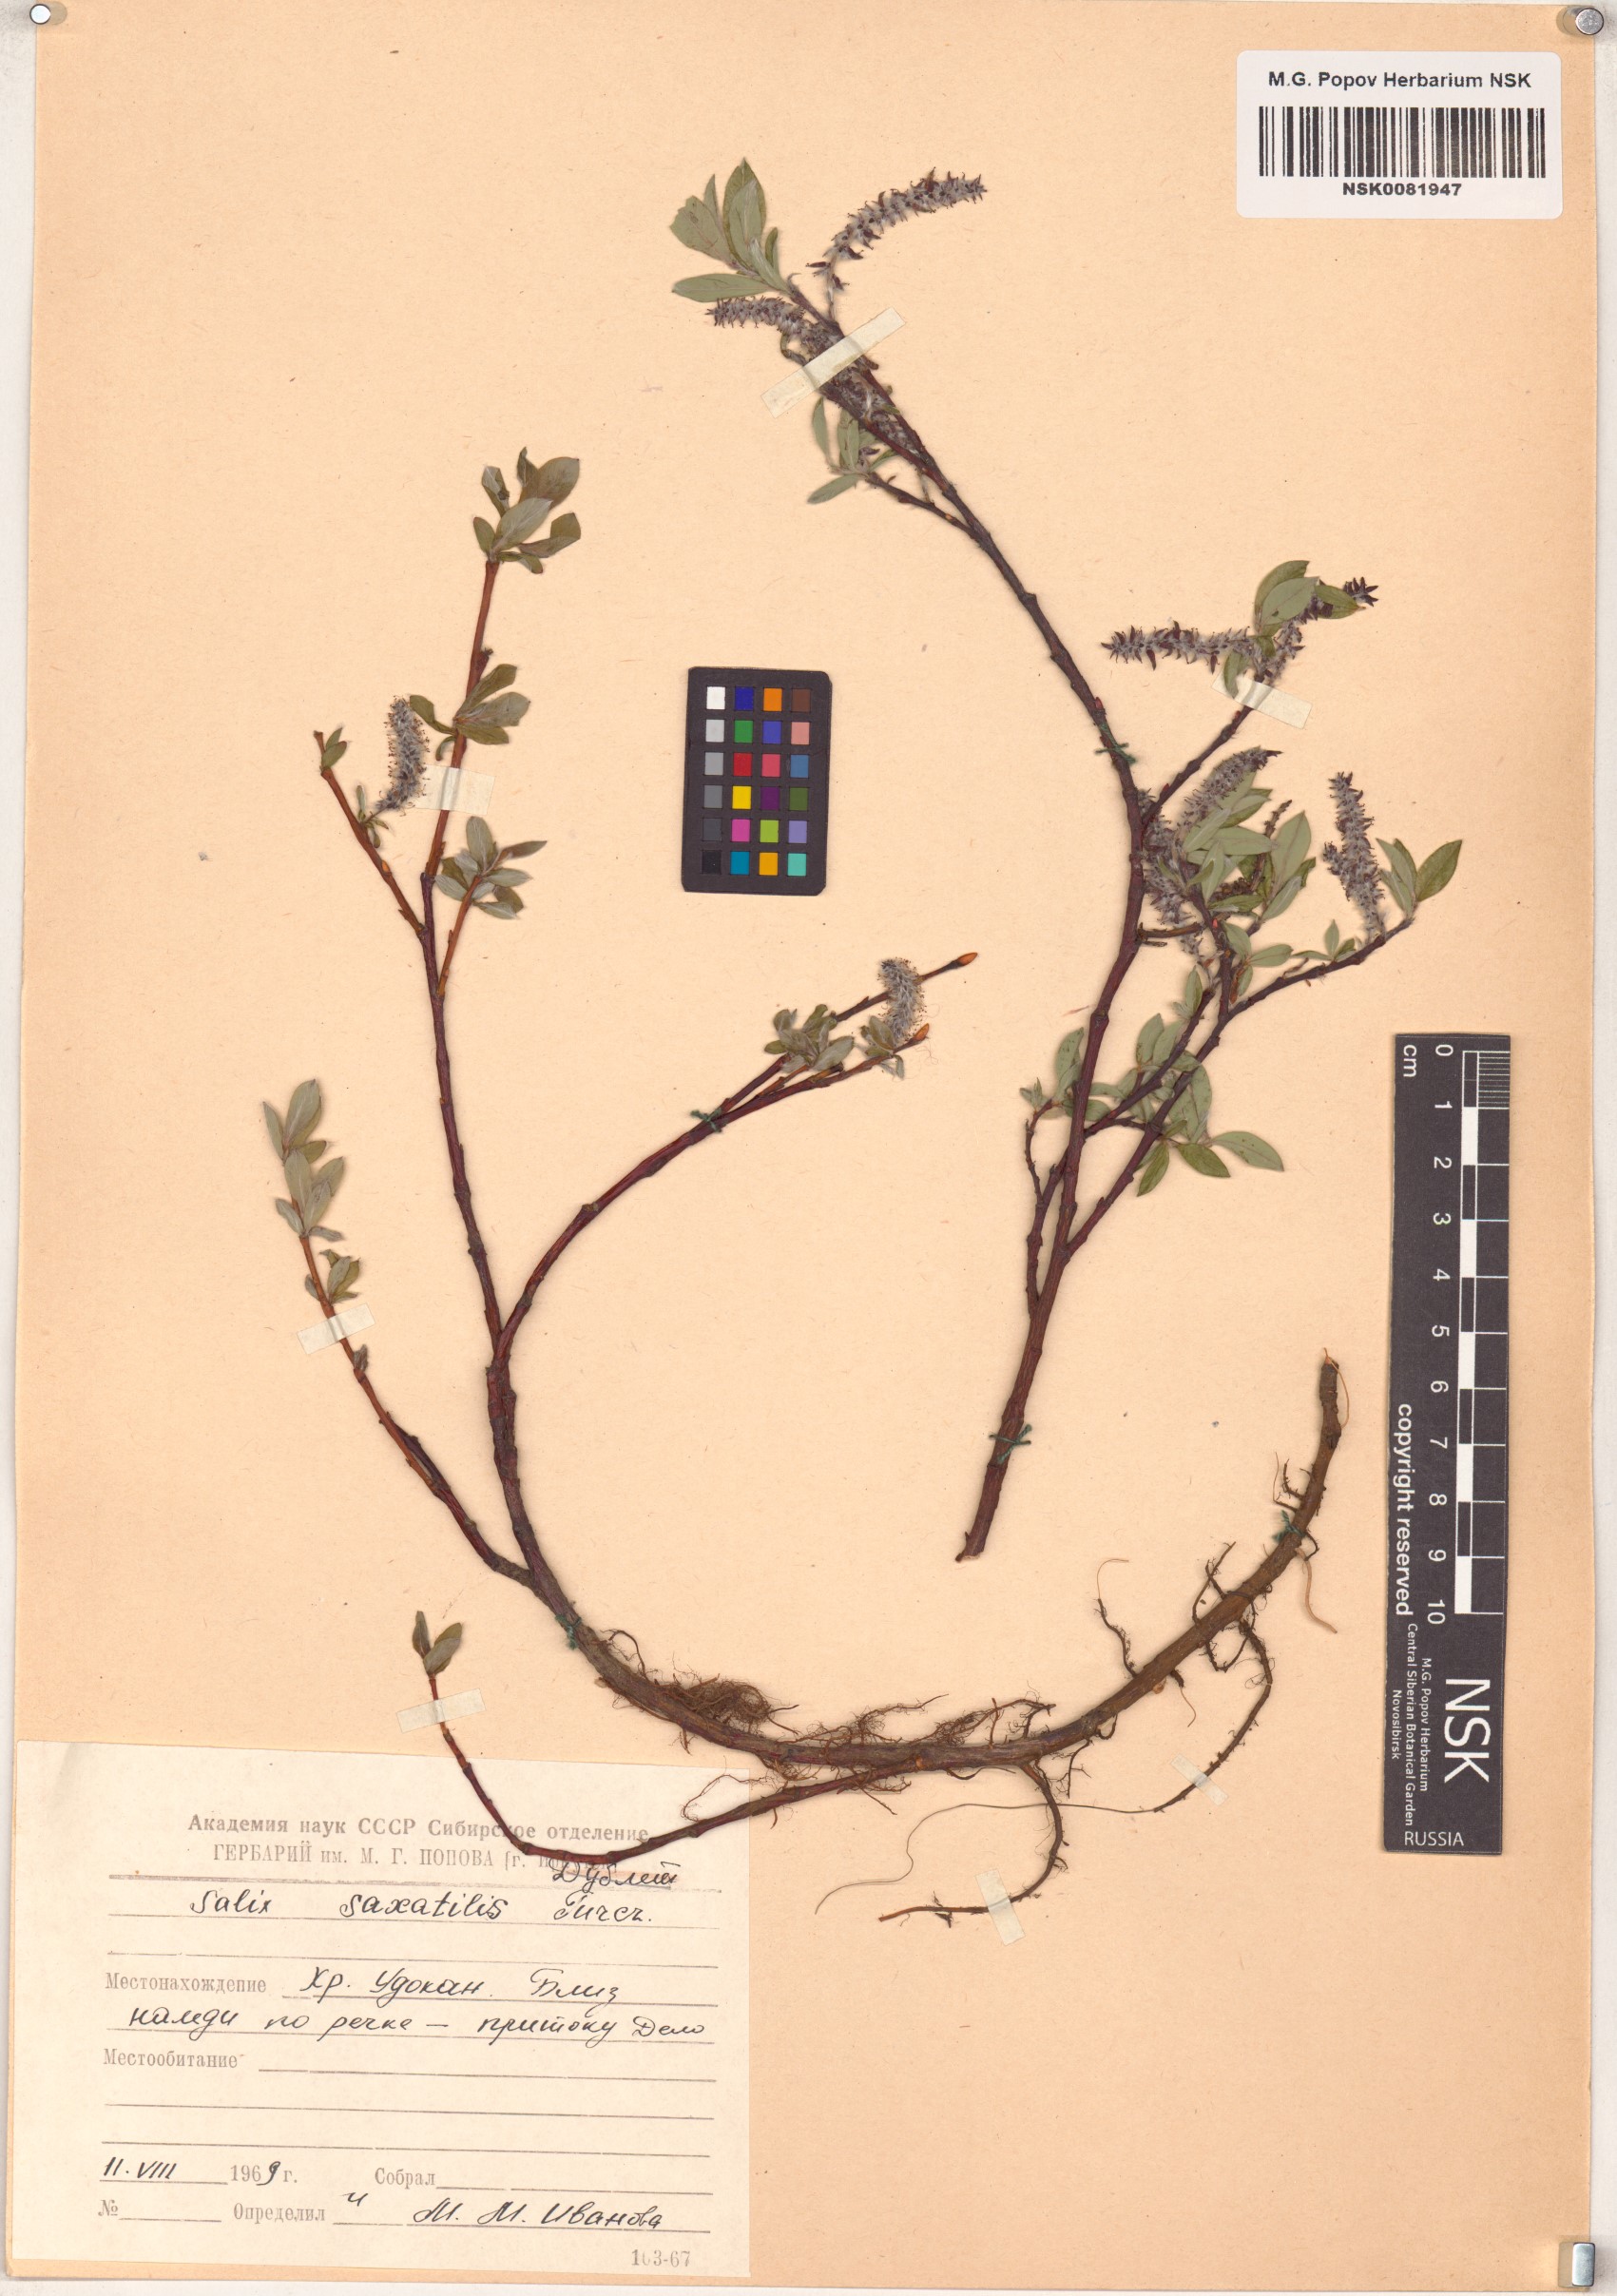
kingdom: Plantae
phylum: Tracheophyta
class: Magnoliopsida
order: Malpighiales
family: Salicaceae
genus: Salix
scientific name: Salix saxatilis
